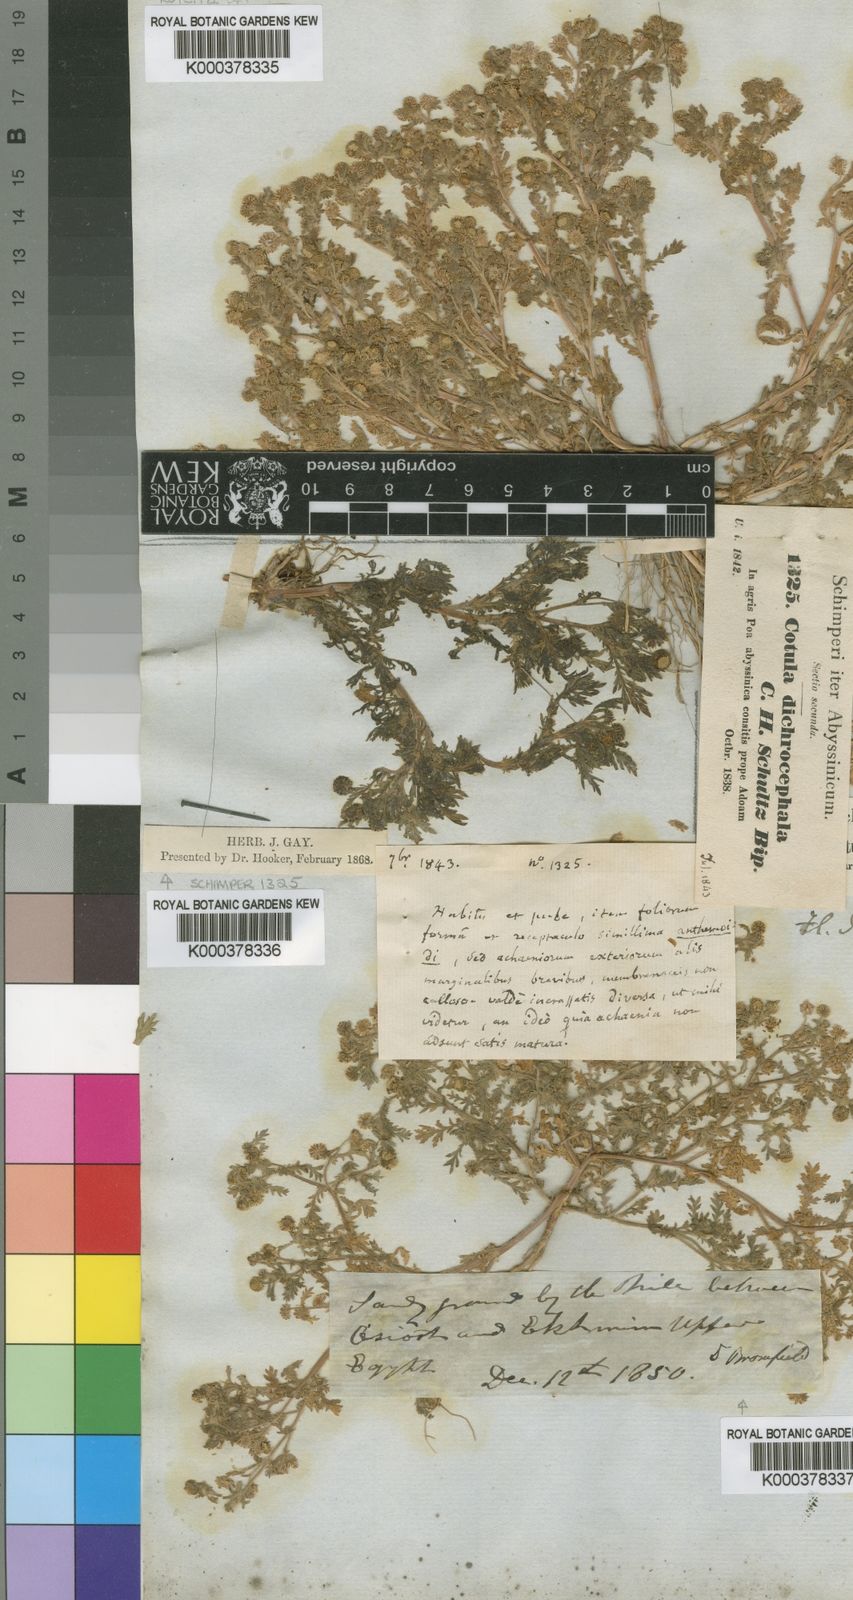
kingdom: Plantae
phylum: Tracheophyta
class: Magnoliopsida
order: Asterales
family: Asteraceae
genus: Cotula
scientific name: Cotula anthemoides
